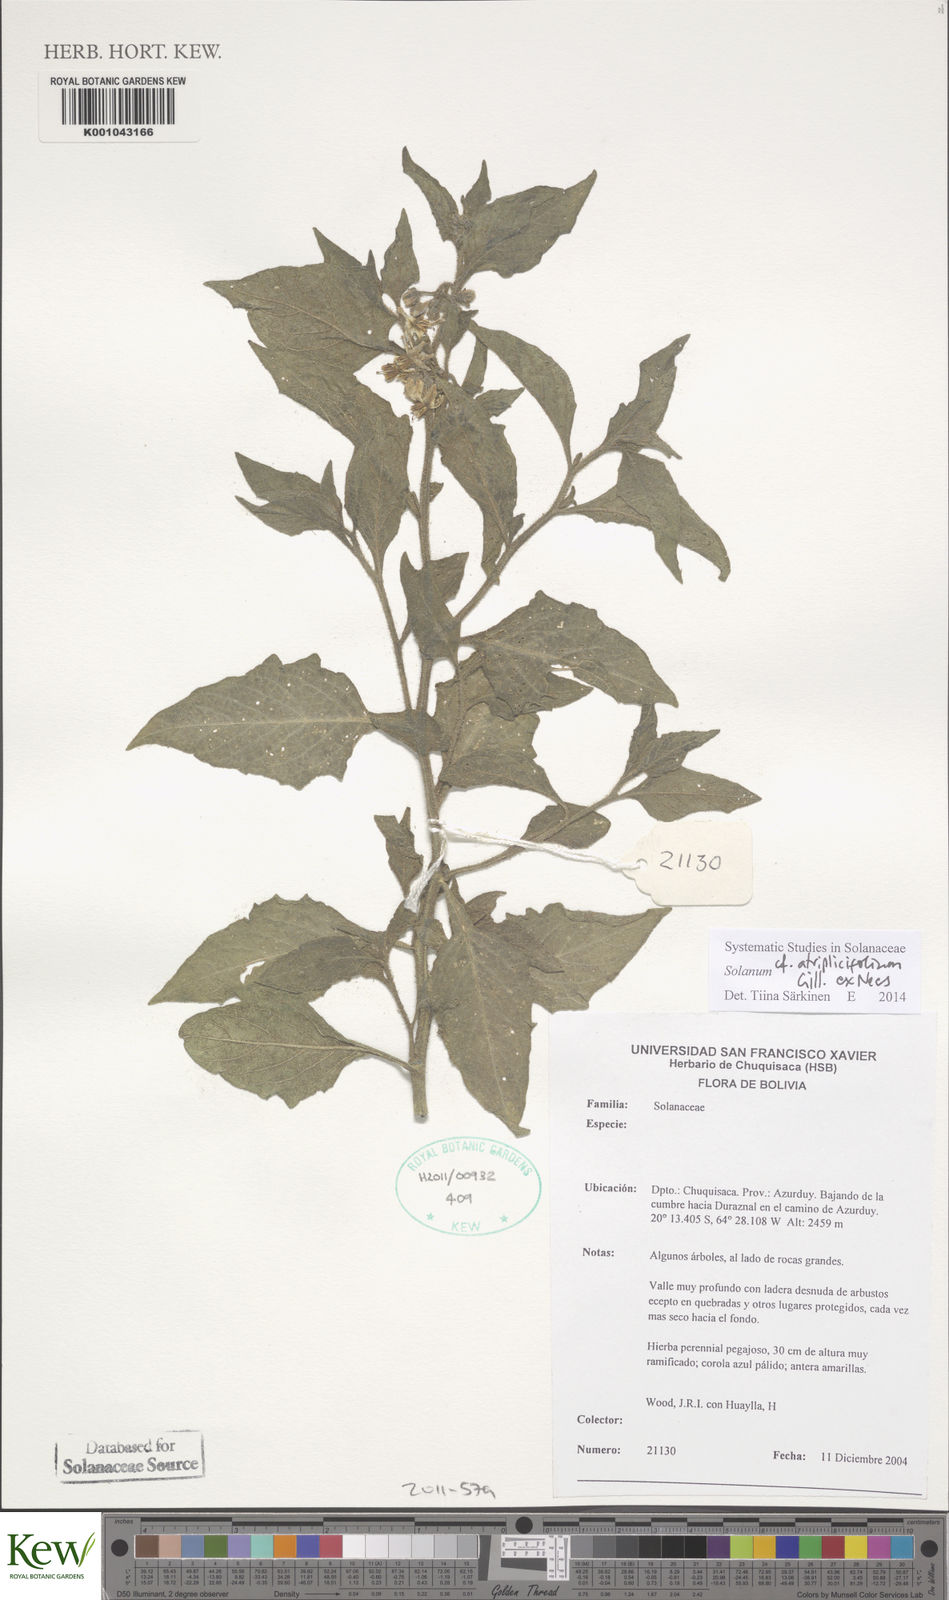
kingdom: Plantae
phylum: Tracheophyta
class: Magnoliopsida
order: Solanales
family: Solanaceae
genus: Solanum
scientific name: Solanum tweedianum
